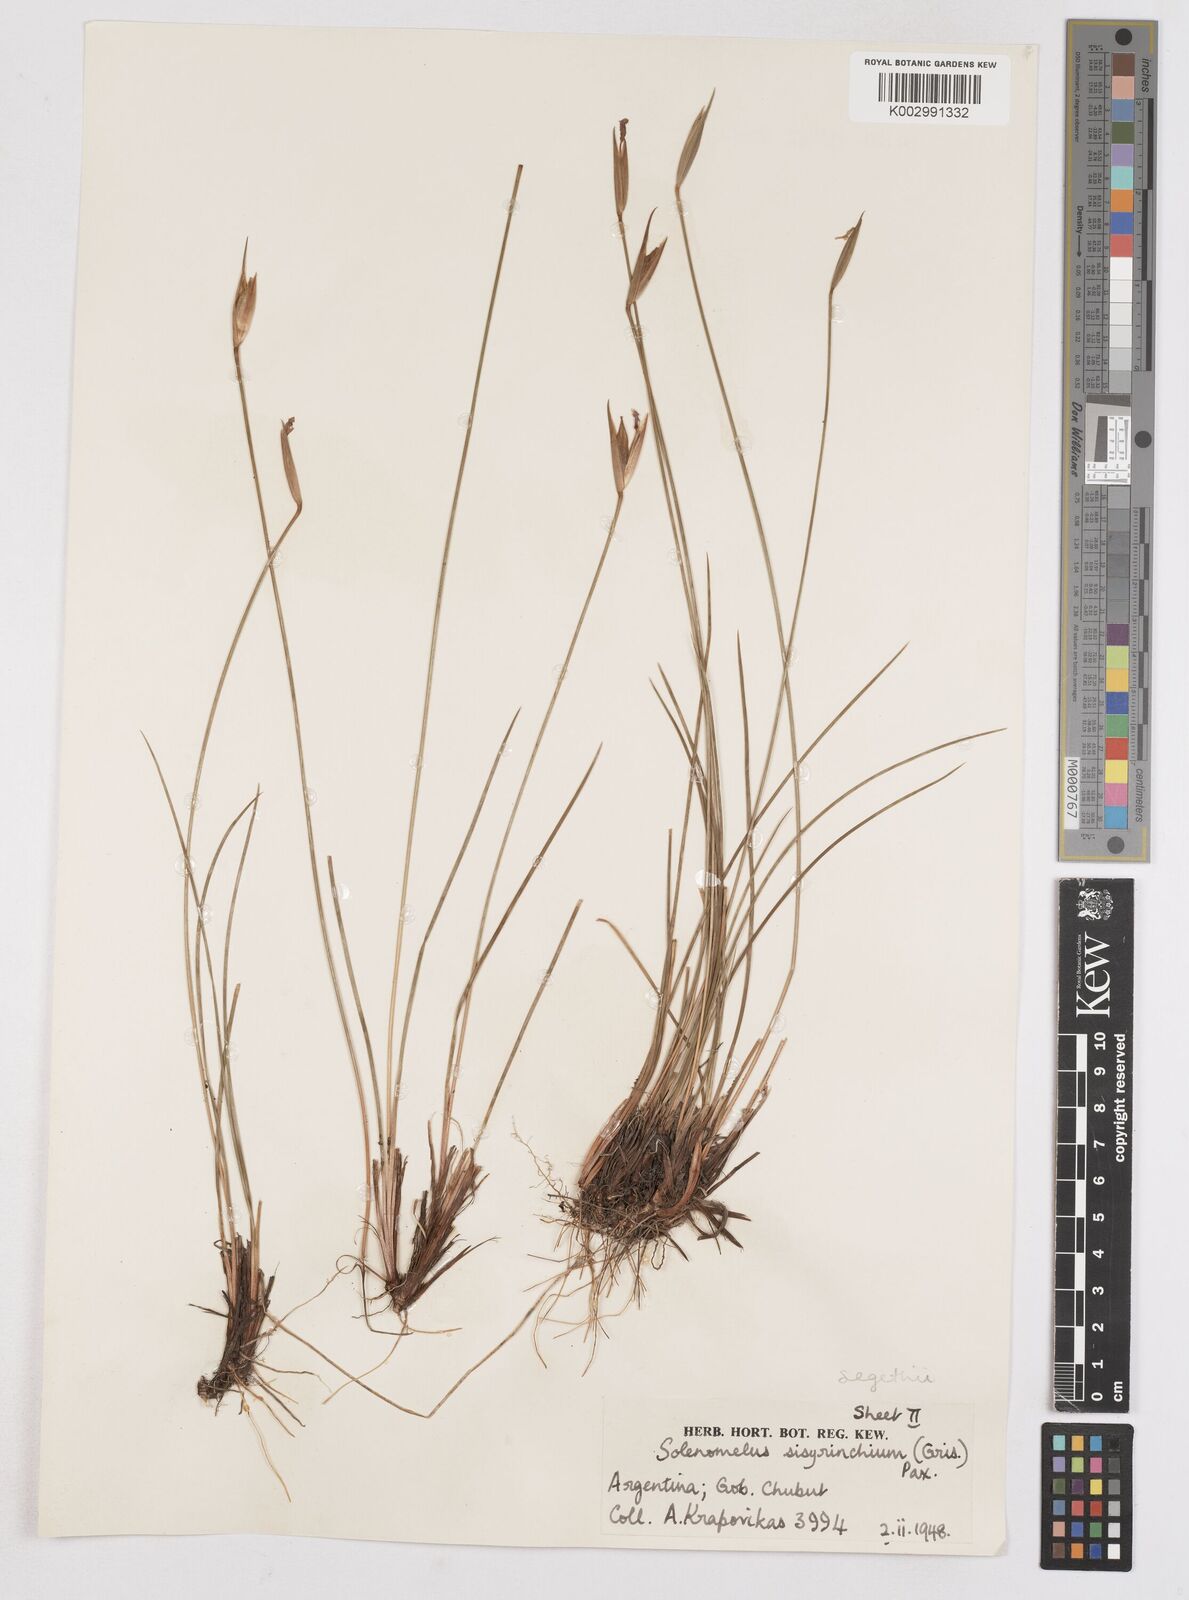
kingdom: Plantae
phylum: Tracheophyta
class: Liliopsida
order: Asparagales
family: Iridaceae
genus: Solenomelus
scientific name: Solenomelus segethi
